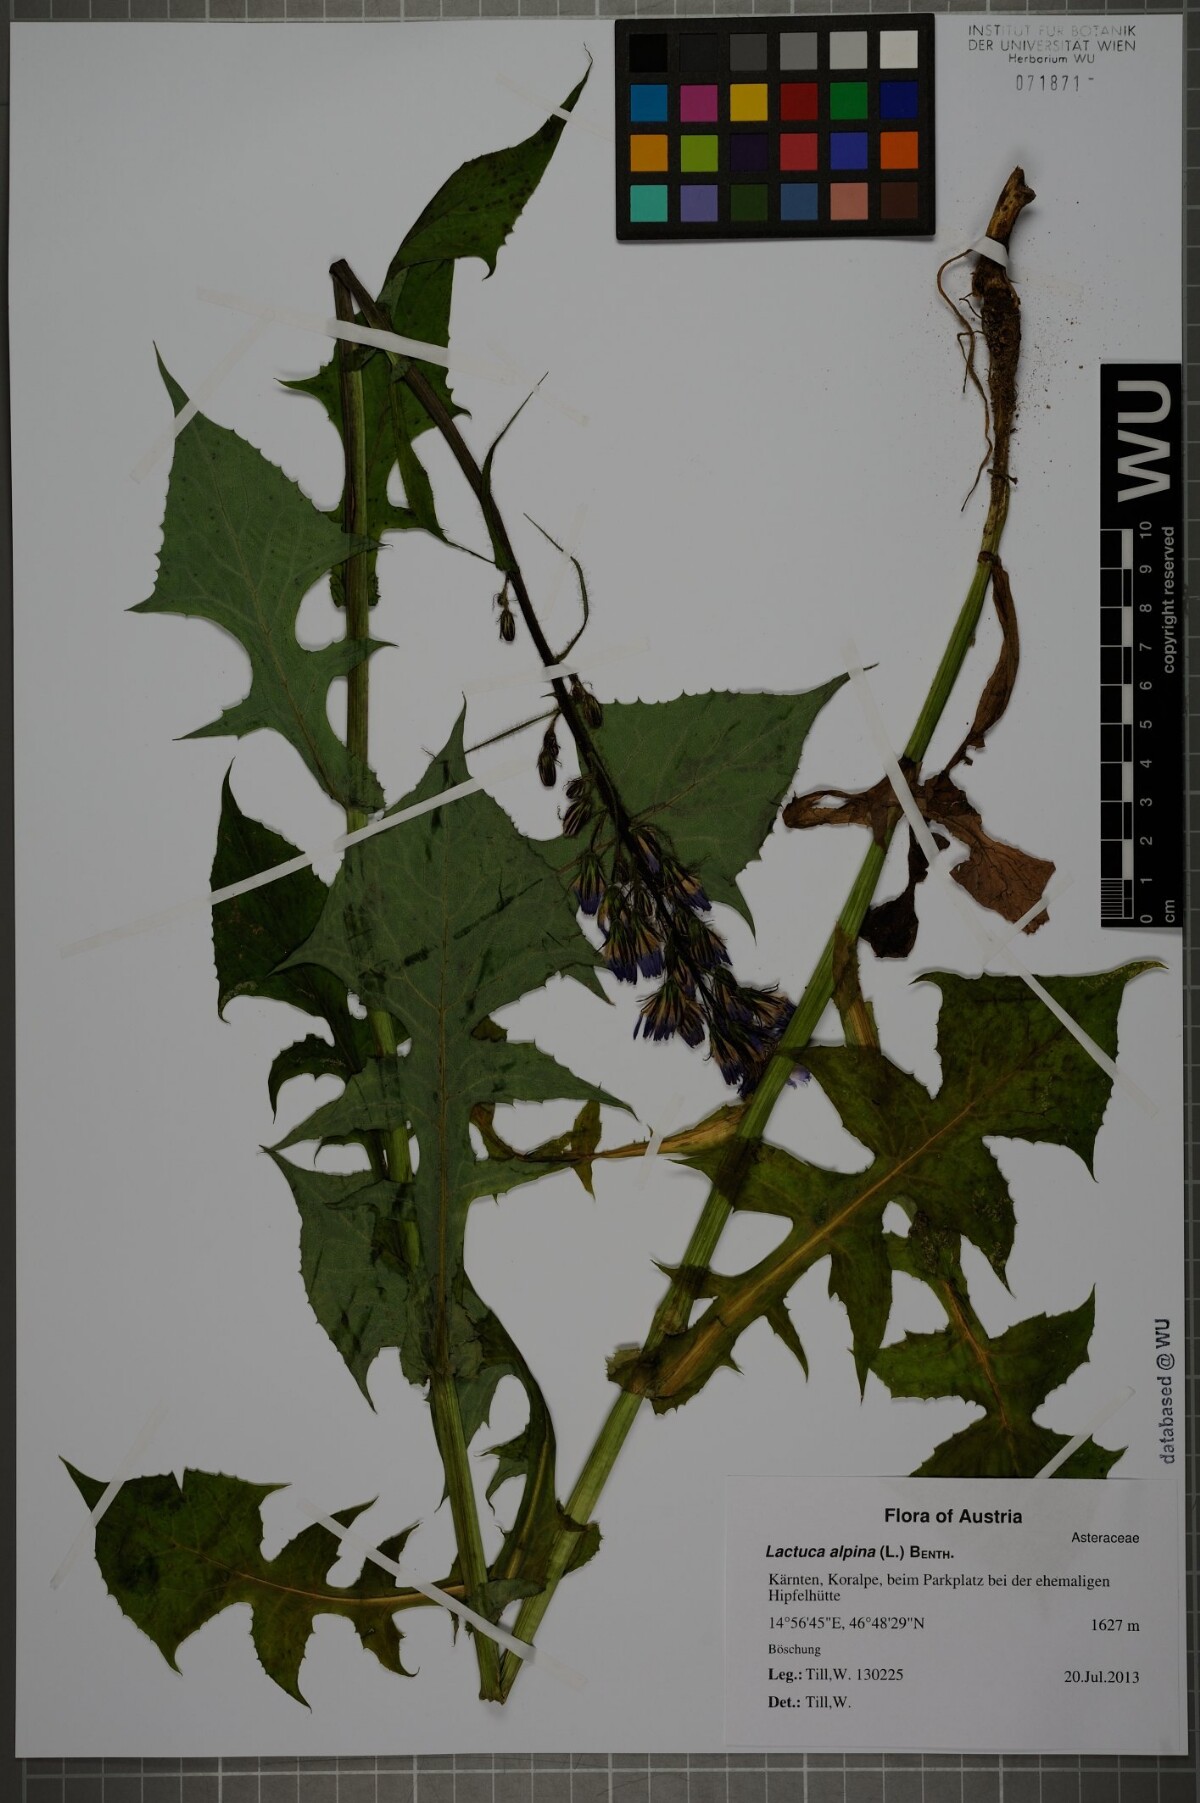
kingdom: Plantae
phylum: Tracheophyta
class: Magnoliopsida
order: Asterales
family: Asteraceae
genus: Lactuca
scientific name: Lactuca alpina
